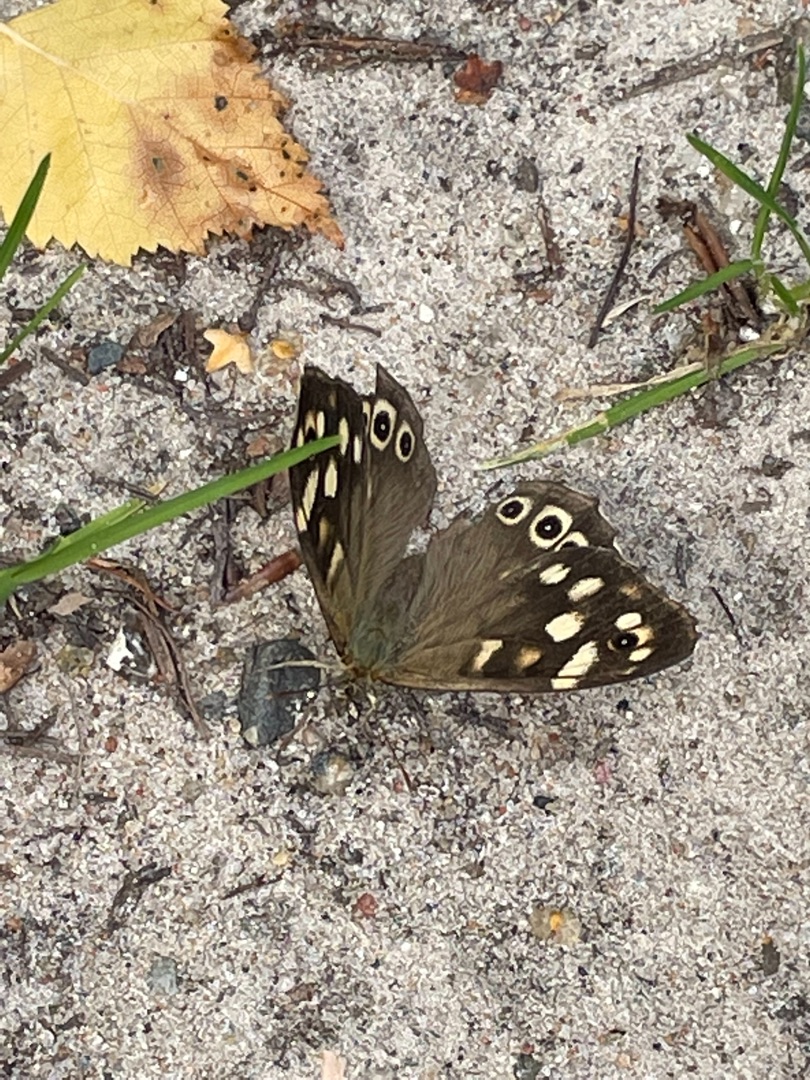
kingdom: Animalia
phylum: Arthropoda
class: Insecta
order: Lepidoptera
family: Nymphalidae
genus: Pararge
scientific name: Pararge aegeria
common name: Skovrandøje
